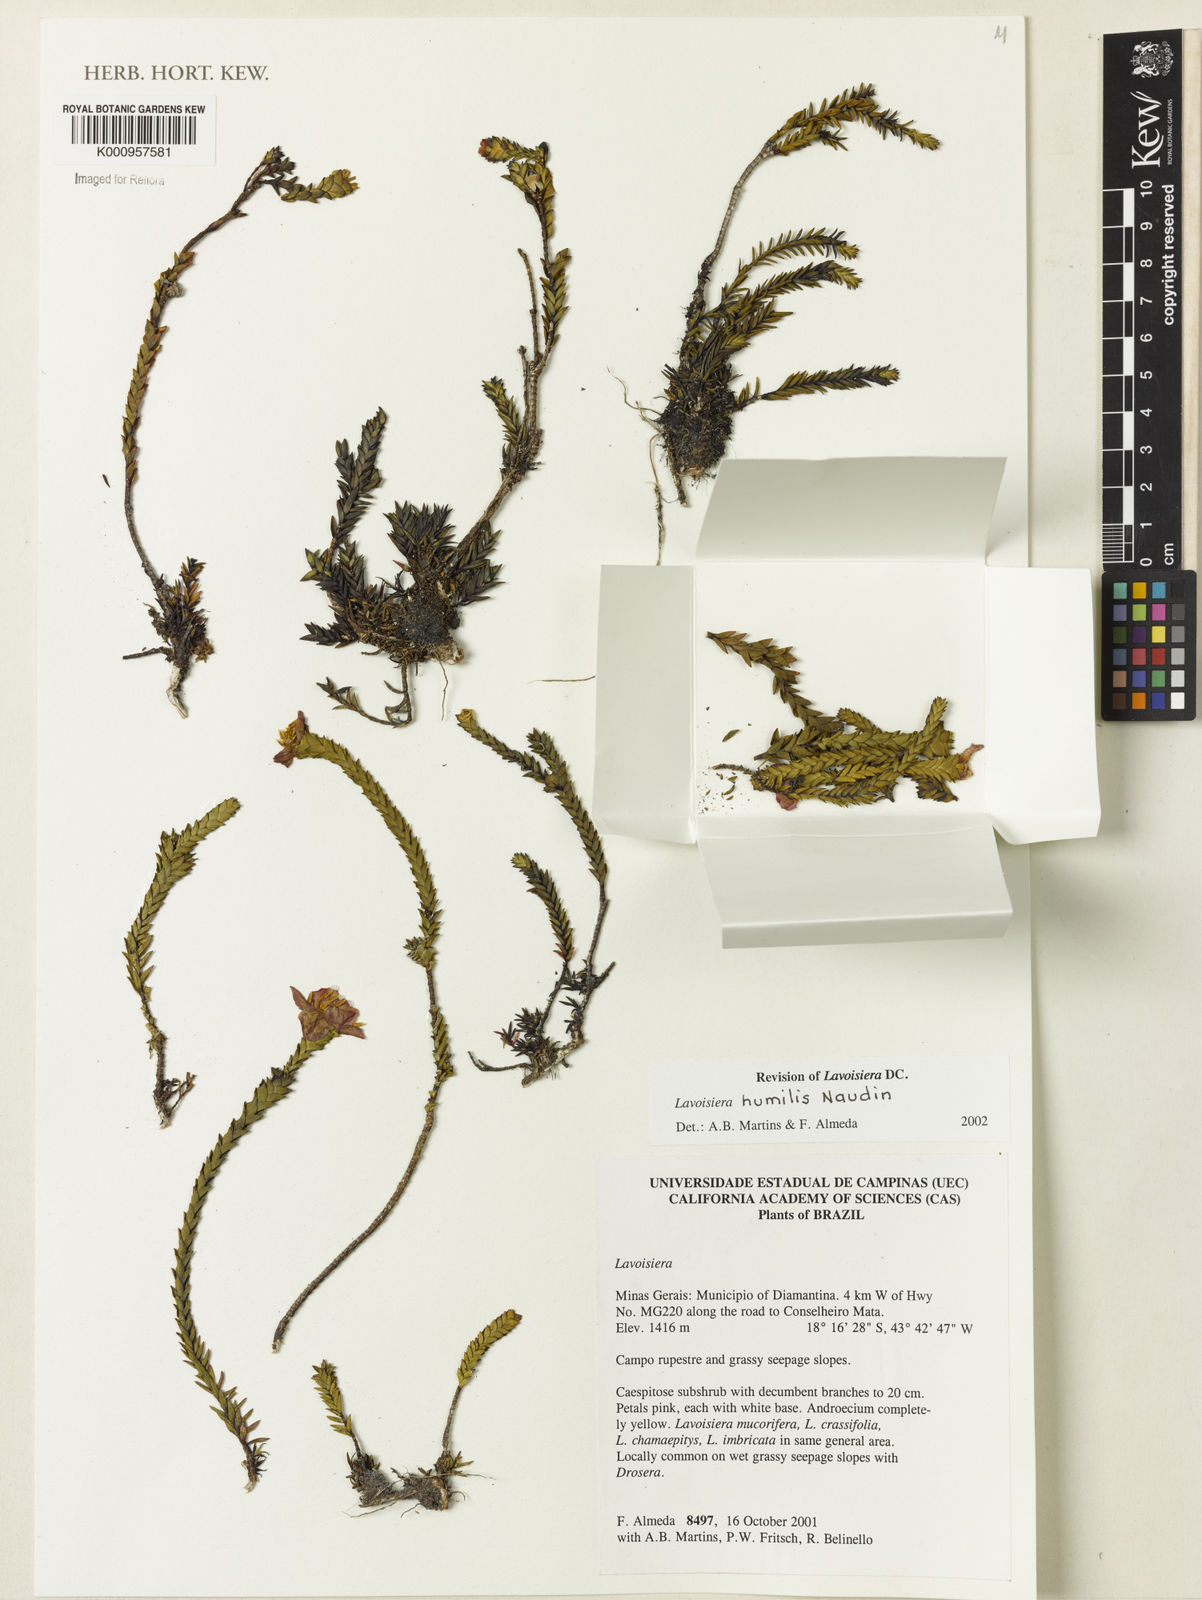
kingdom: Plantae
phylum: Tracheophyta
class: Magnoliopsida
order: Myrtales
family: Melastomataceae
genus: Microlicia
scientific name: Microlicia minor
